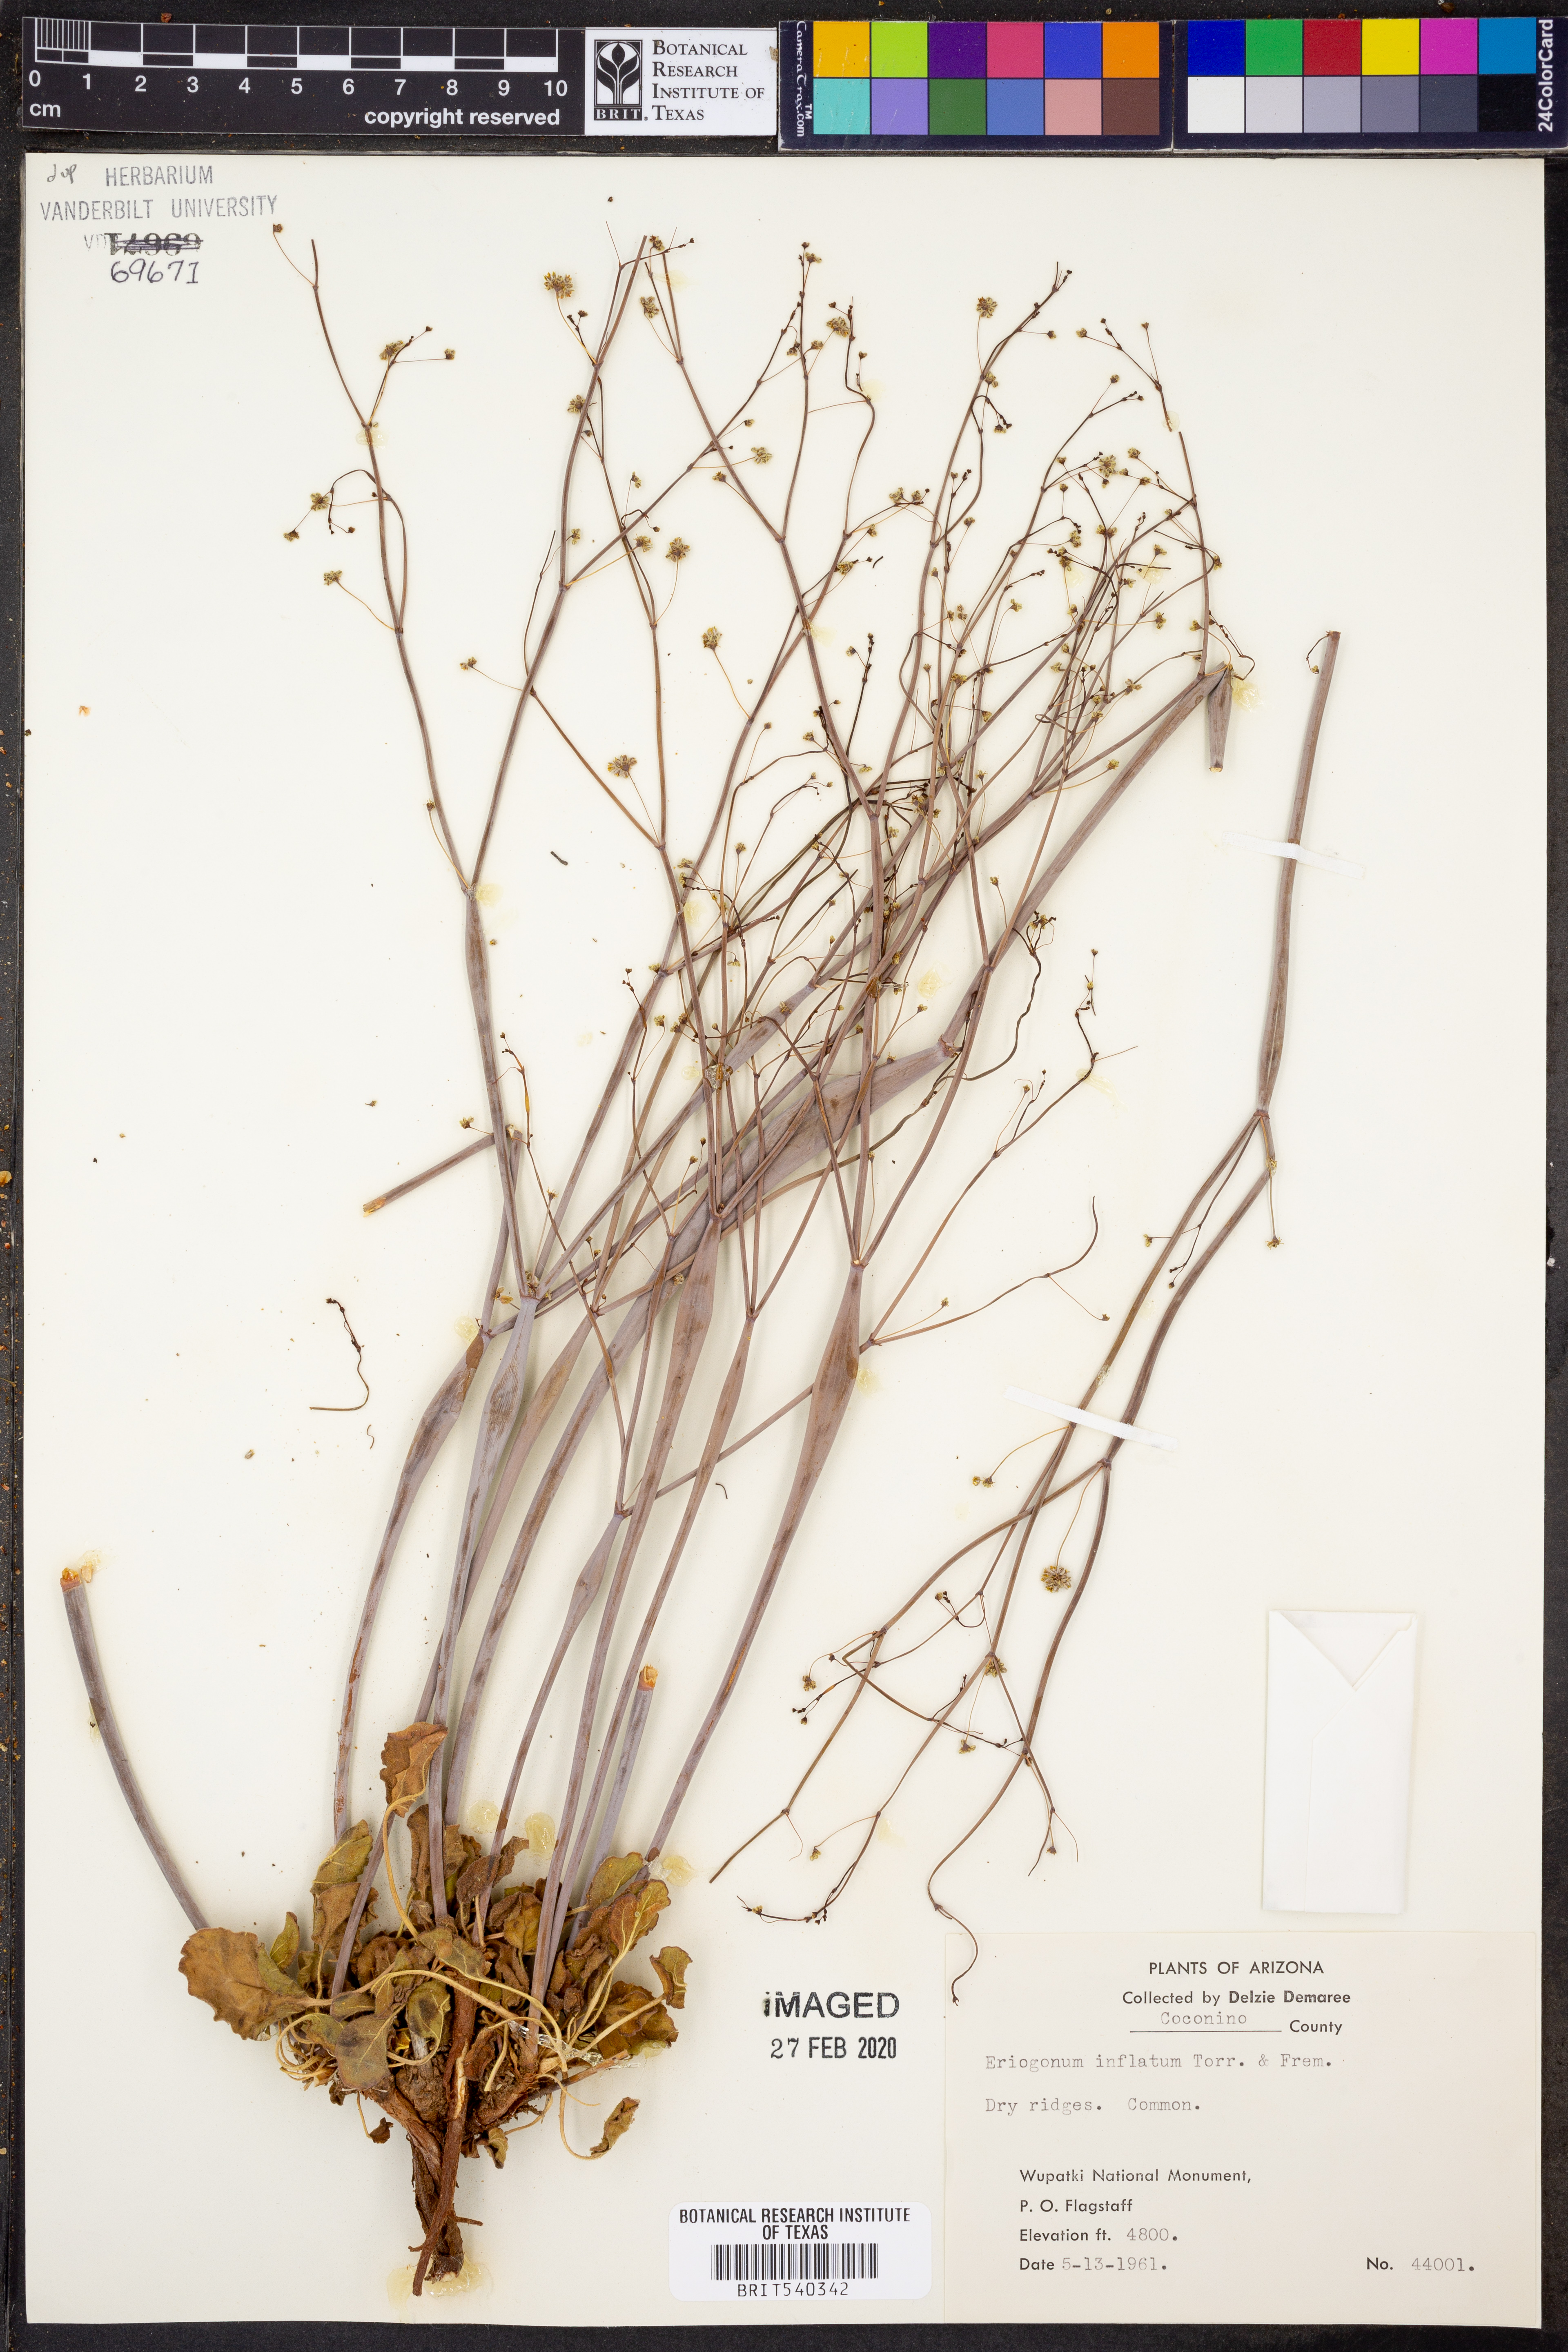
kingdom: Plantae
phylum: Tracheophyta
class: Magnoliopsida
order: Caryophyllales
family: Polygonaceae
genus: Eriogonum
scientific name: Eriogonum inflatum
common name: Desert trumpet
